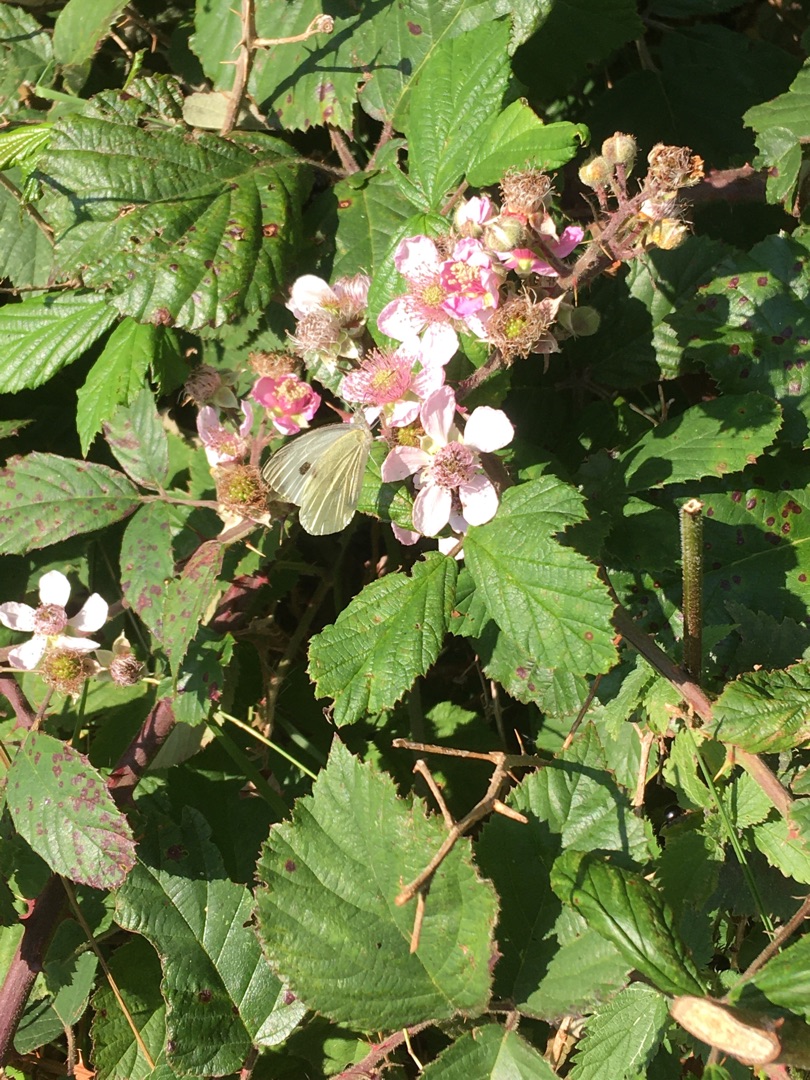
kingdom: Animalia
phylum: Arthropoda
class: Insecta
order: Lepidoptera
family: Pieridae
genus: Pieris
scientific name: Pieris brassicae
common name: Stor kålsommerfugl
